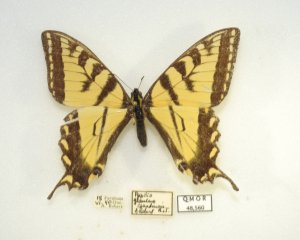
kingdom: Animalia
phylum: Arthropoda
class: Insecta
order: Lepidoptera
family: Papilionidae
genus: Pterourus
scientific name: Pterourus canadensis
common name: Canadian Tiger Swallowtail
